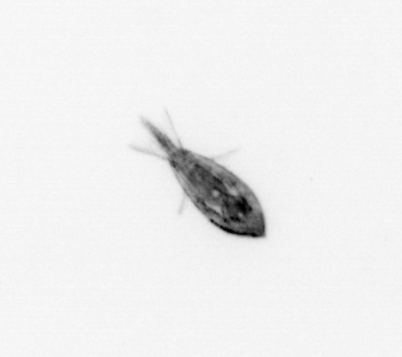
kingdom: Animalia
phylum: Arthropoda
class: Maxillopoda
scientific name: Maxillopoda
